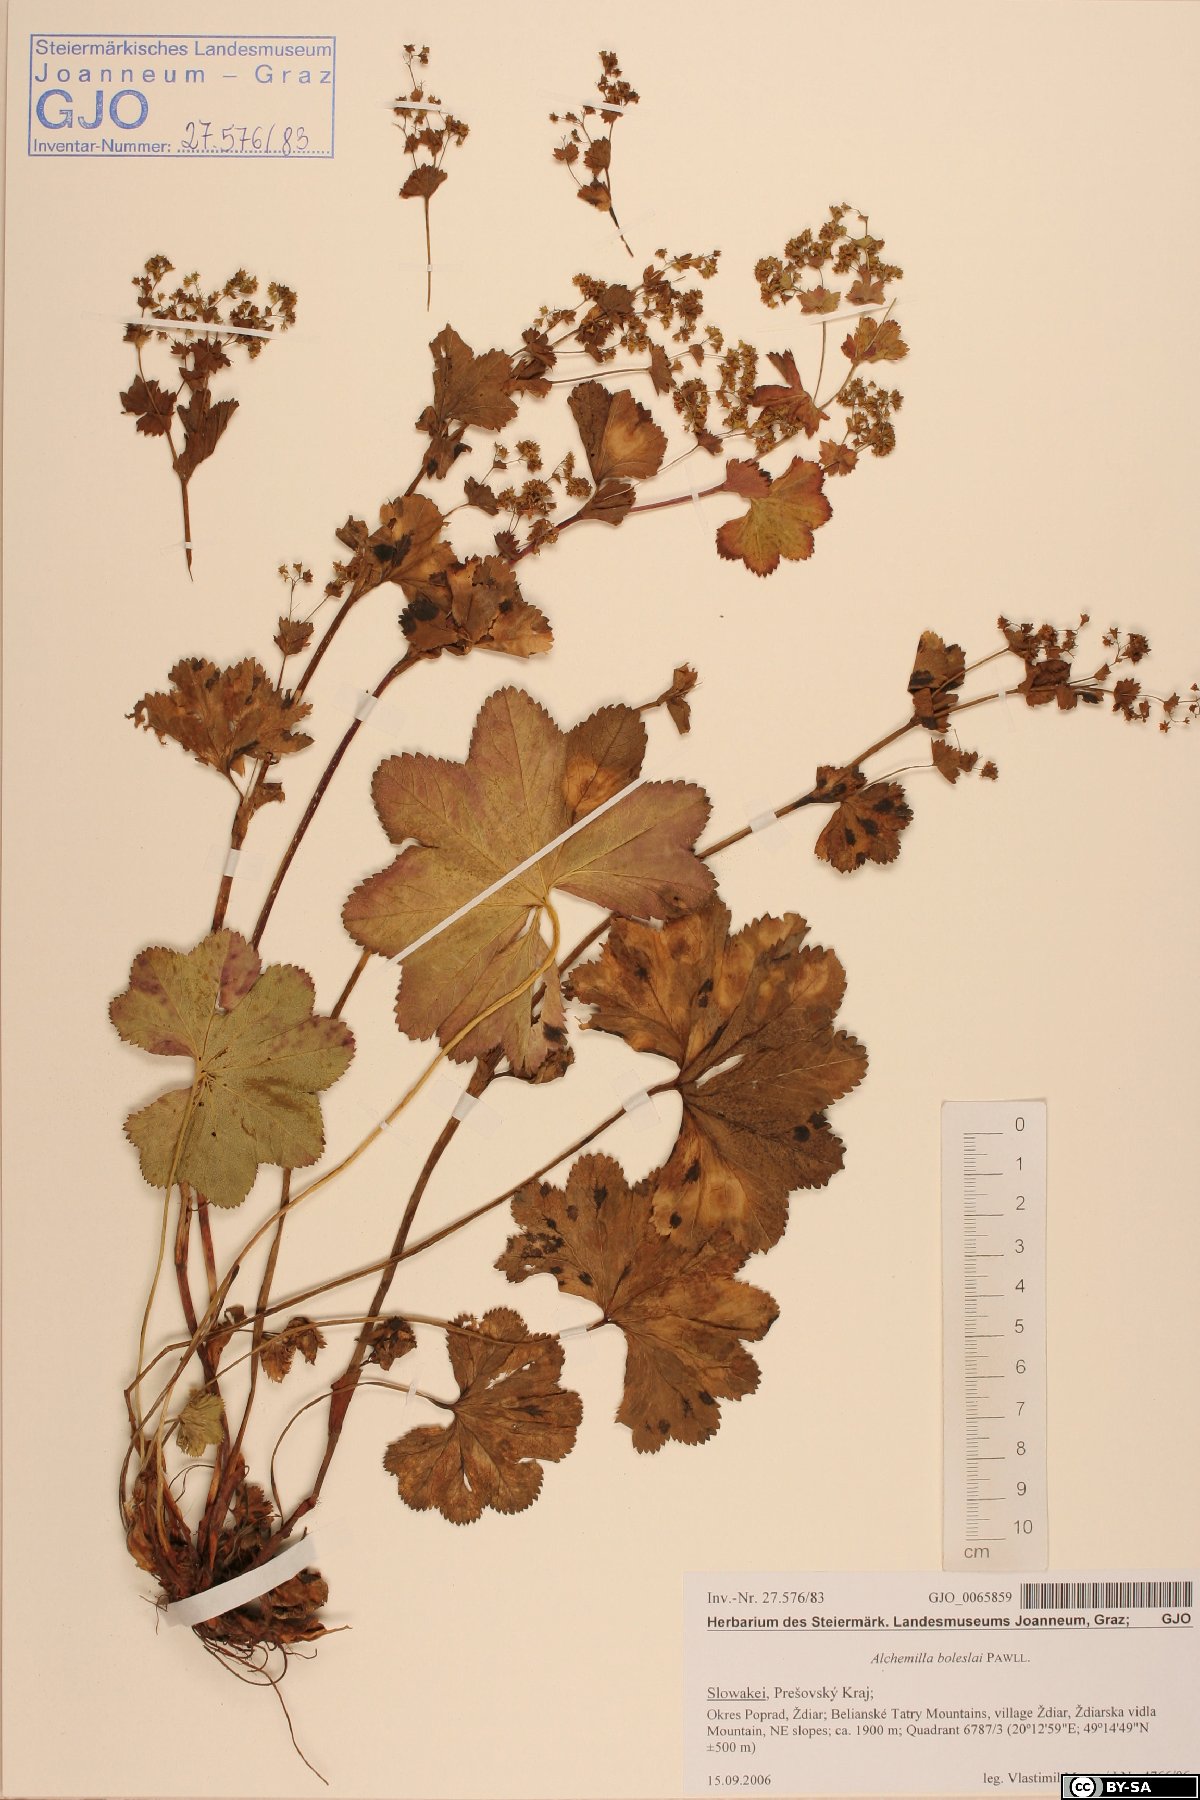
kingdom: Plantae
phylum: Tracheophyta
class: Magnoliopsida
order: Rosales
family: Rosaceae
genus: Alchemilla
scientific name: Alchemilla boleslai
